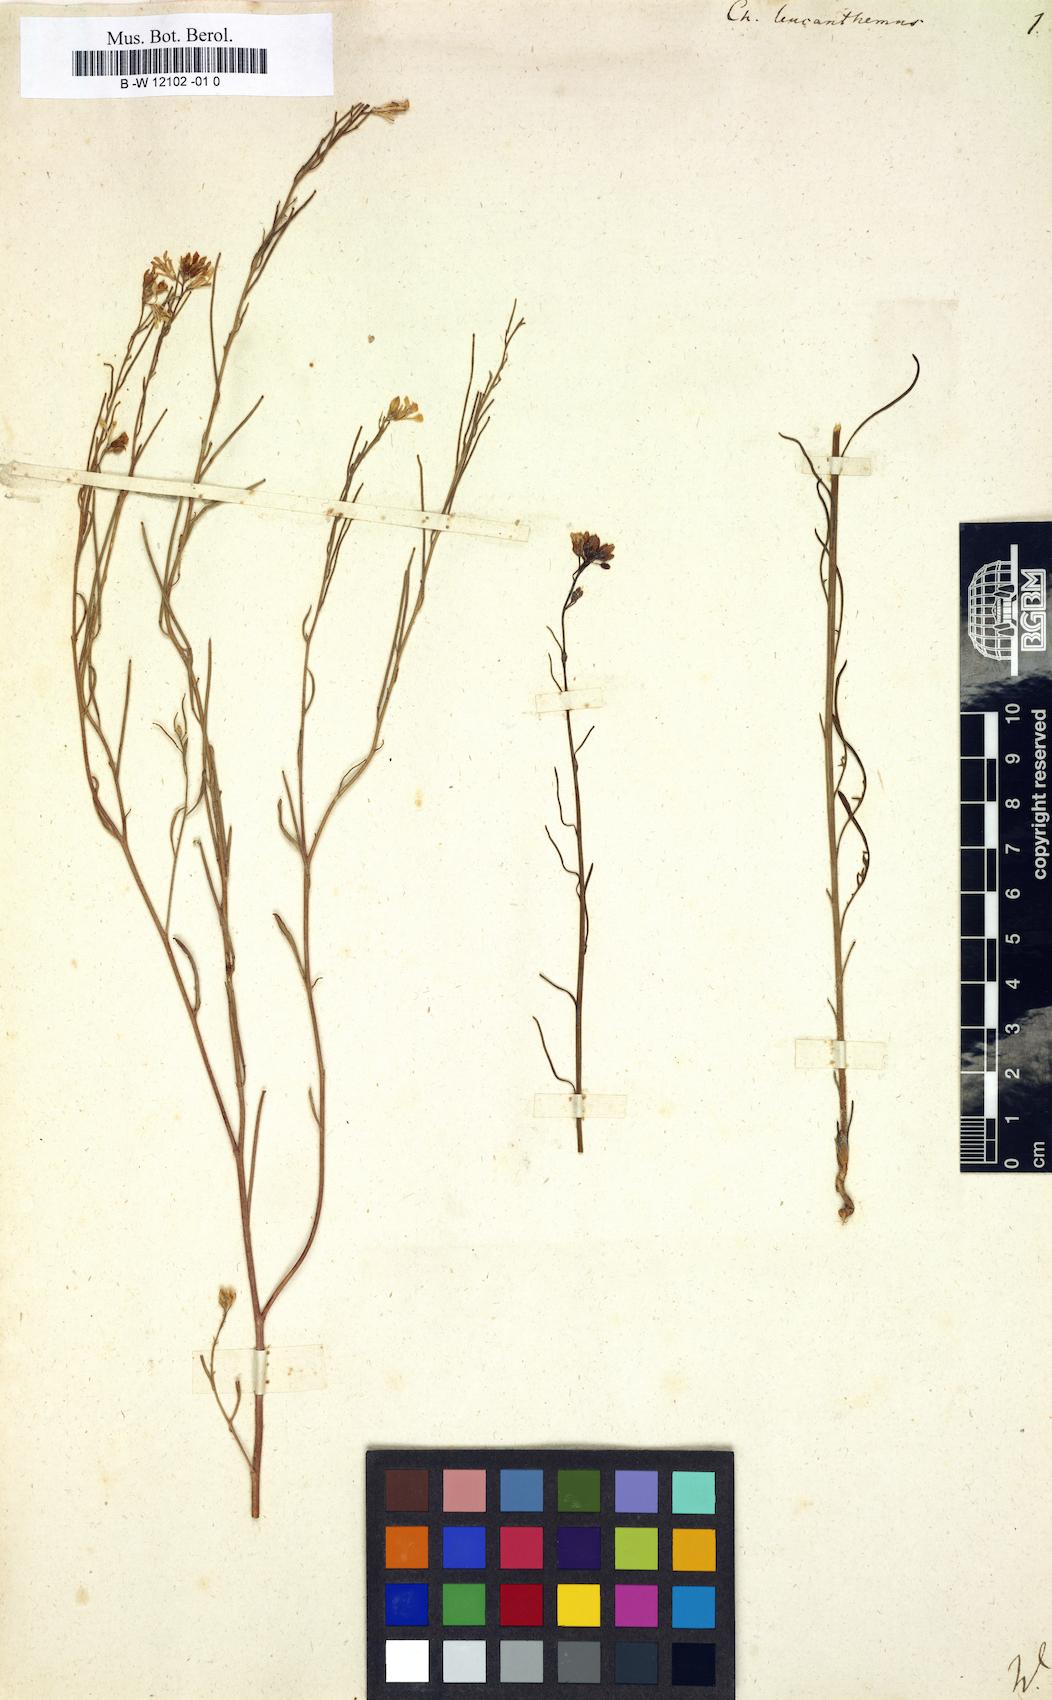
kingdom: Plantae
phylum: Tracheophyta
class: Magnoliopsida
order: Brassicales
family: Brassicaceae
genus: Erysimum
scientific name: Erysimum leucanthemum
